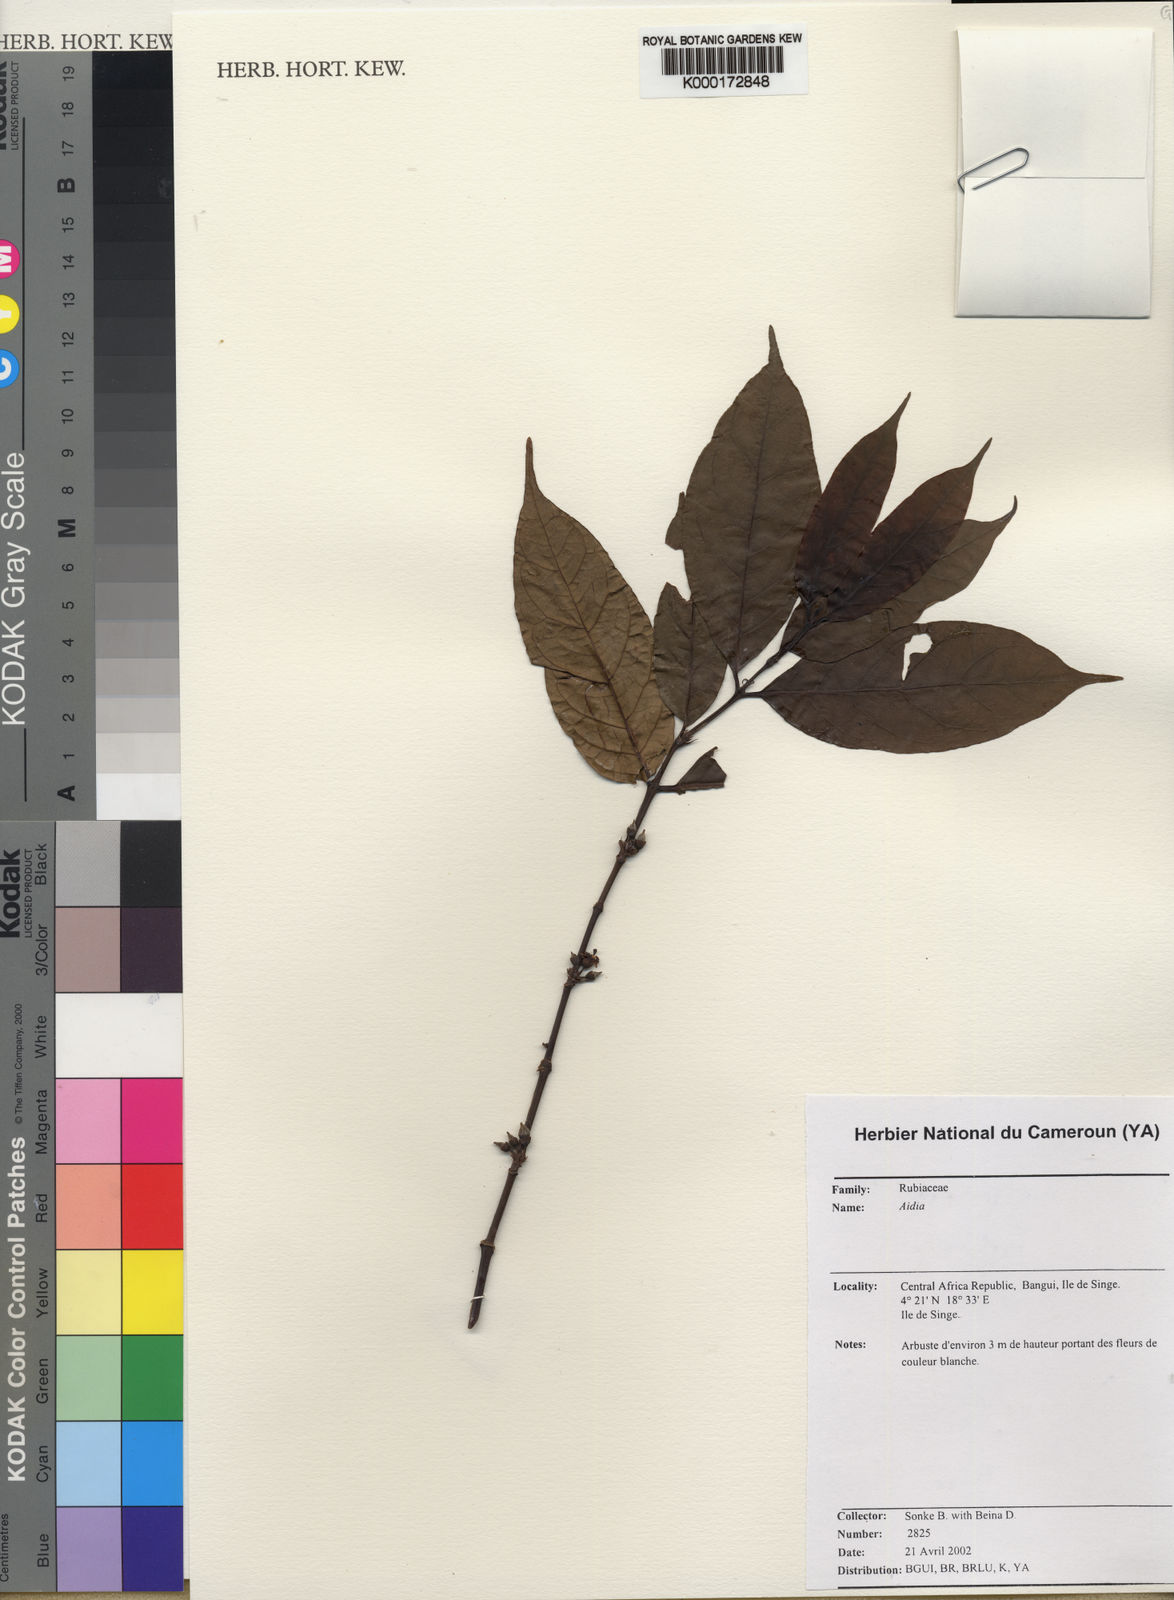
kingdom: Plantae
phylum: Tracheophyta
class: Magnoliopsida
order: Gentianales
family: Rubiaceae
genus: Aidia
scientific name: Aidia
